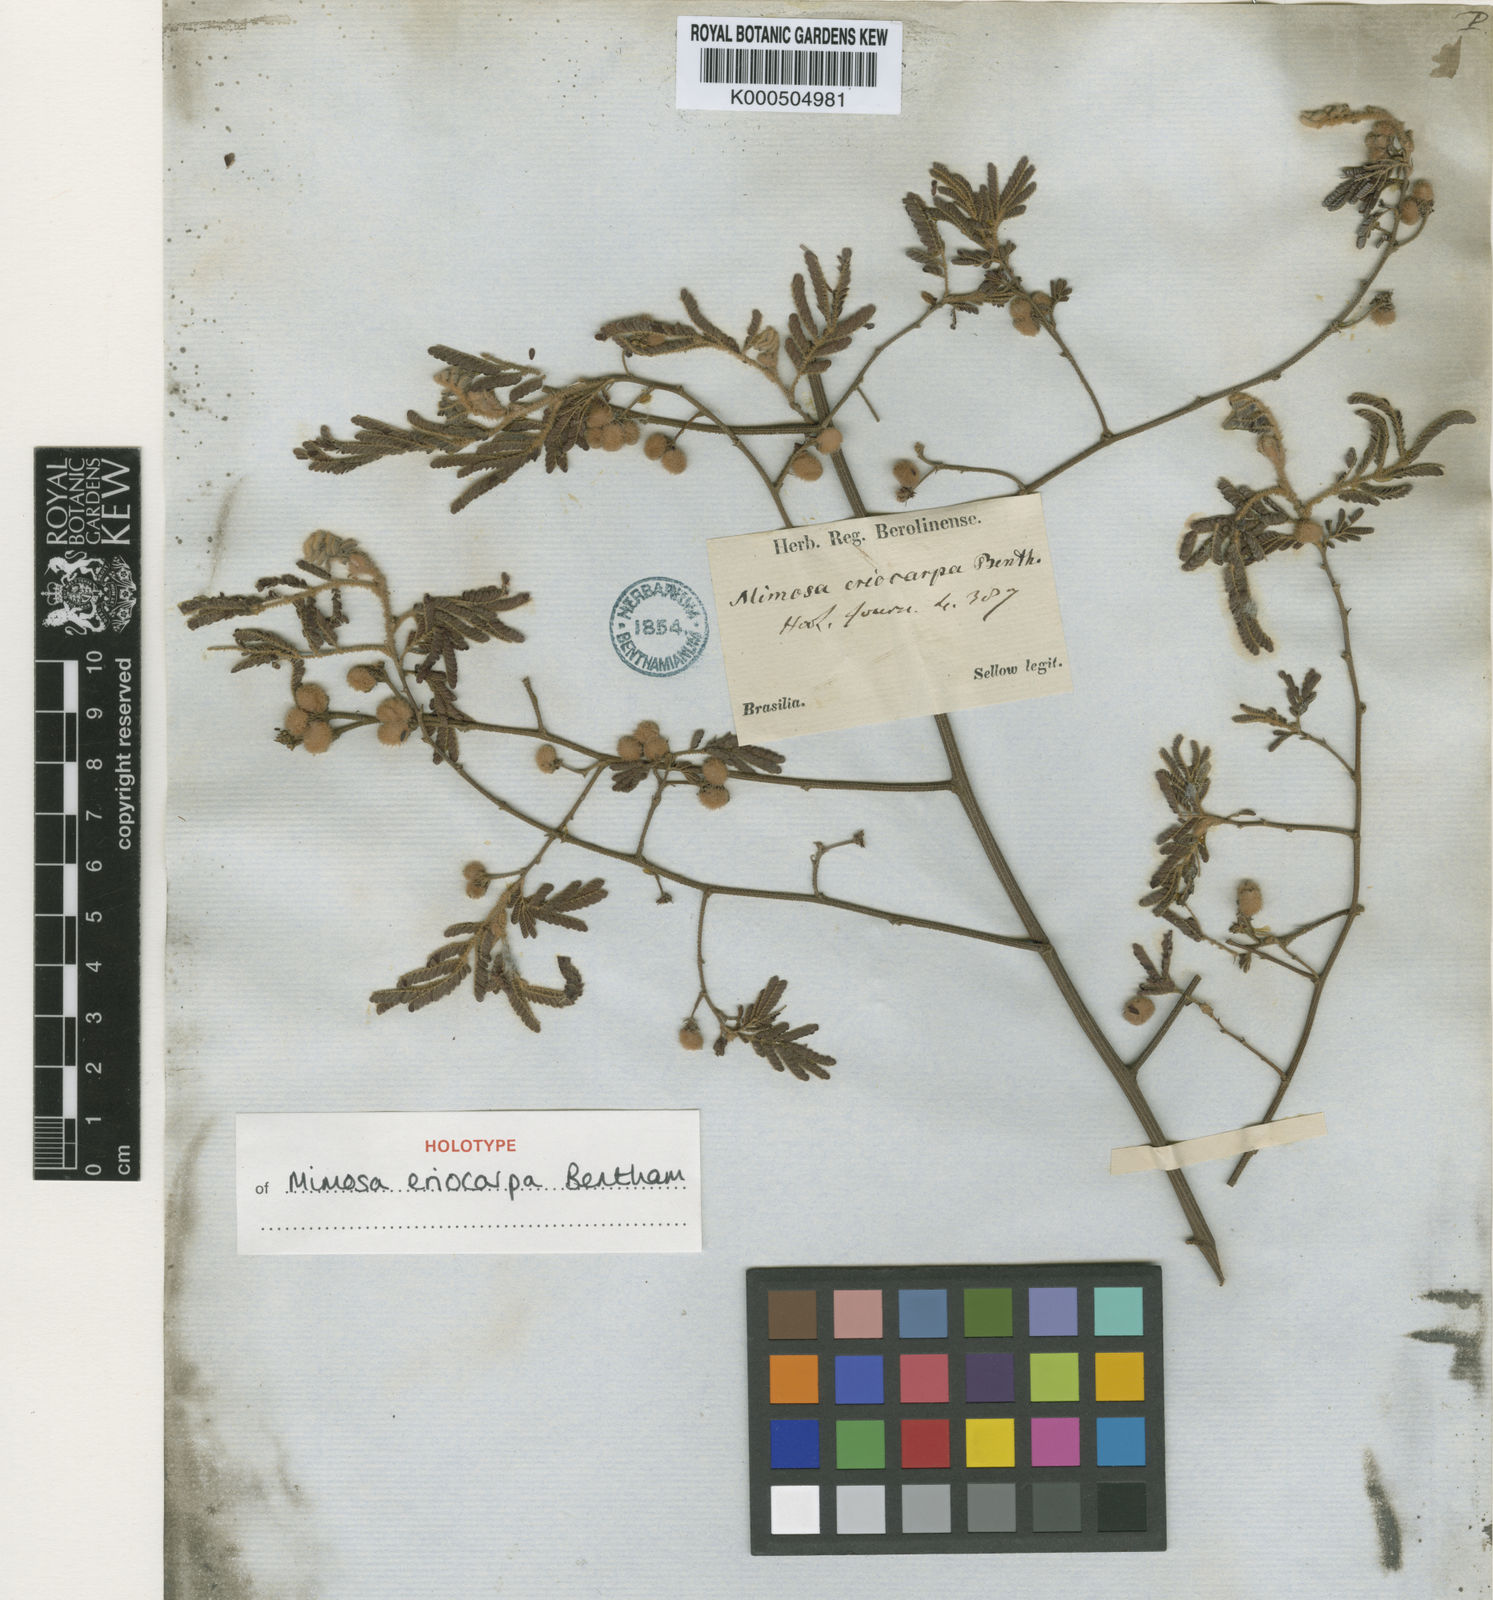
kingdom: Plantae
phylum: Tracheophyta
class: Magnoliopsida
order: Fabales
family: Fabaceae
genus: Mimosa
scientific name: Mimosa eriocarpa
